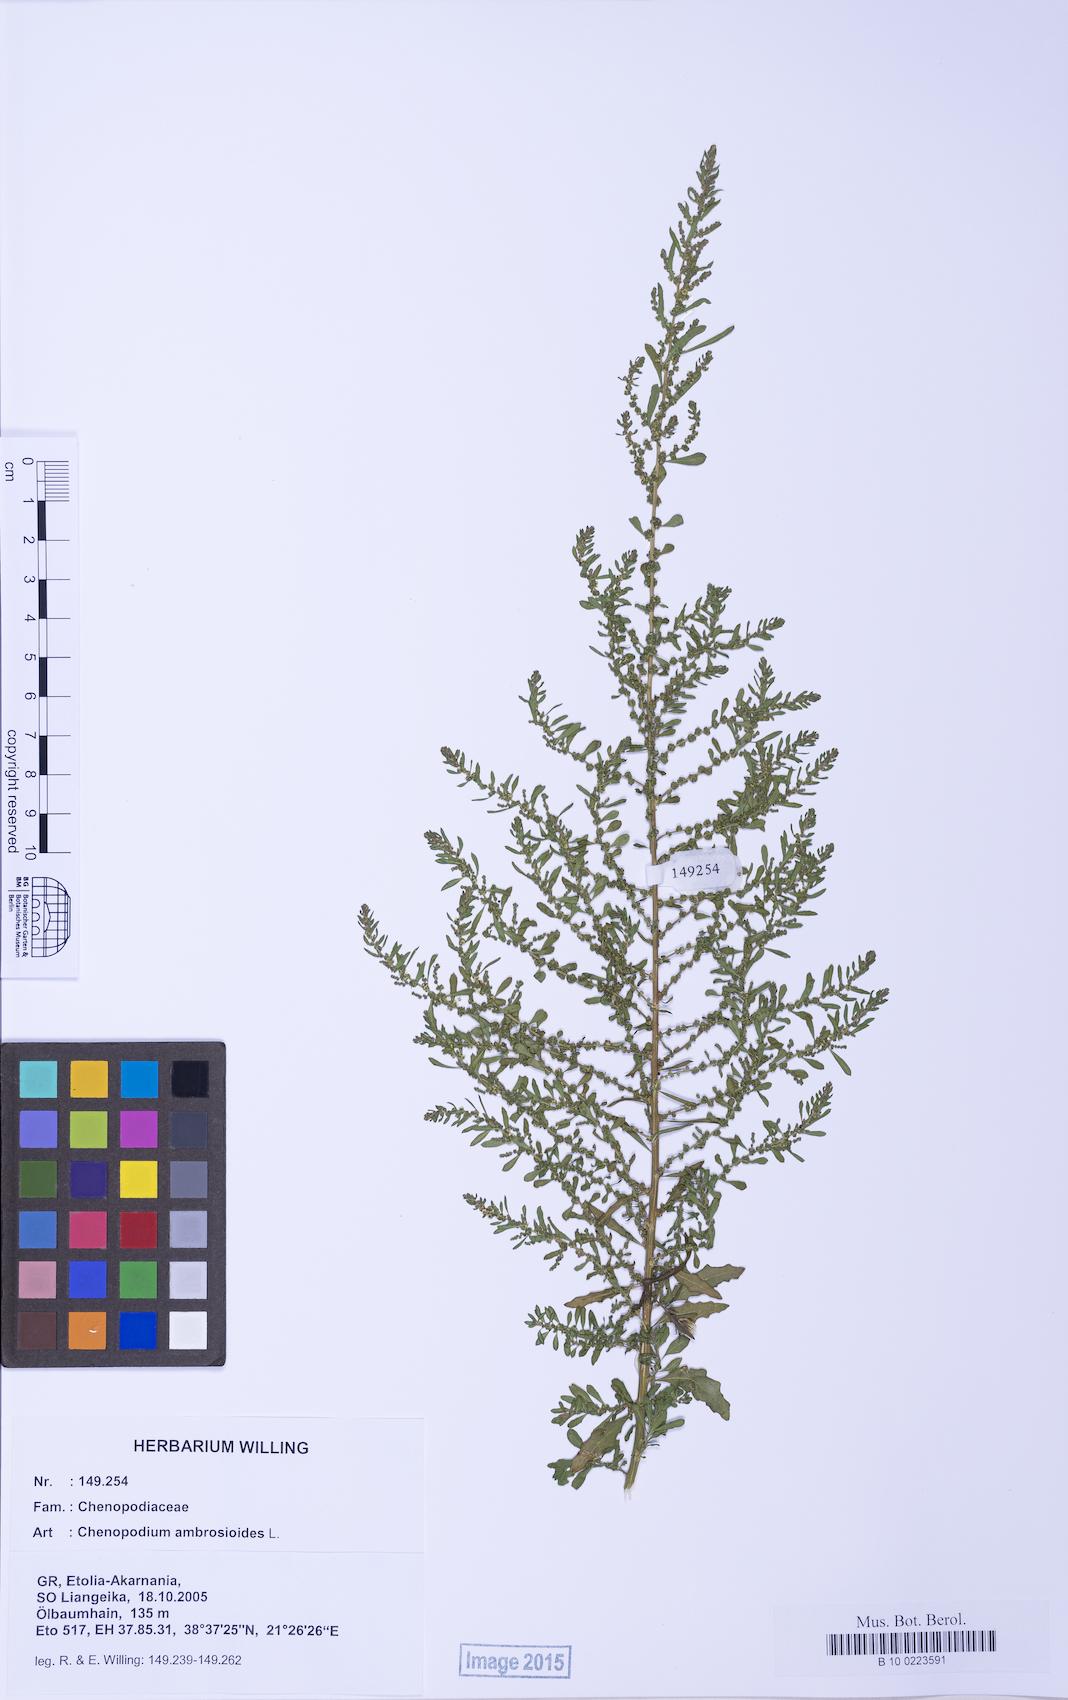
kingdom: Plantae
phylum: Tracheophyta
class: Magnoliopsida
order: Caryophyllales
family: Amaranthaceae
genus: Dysphania
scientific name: Dysphania ambrosioides
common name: Wormseed
